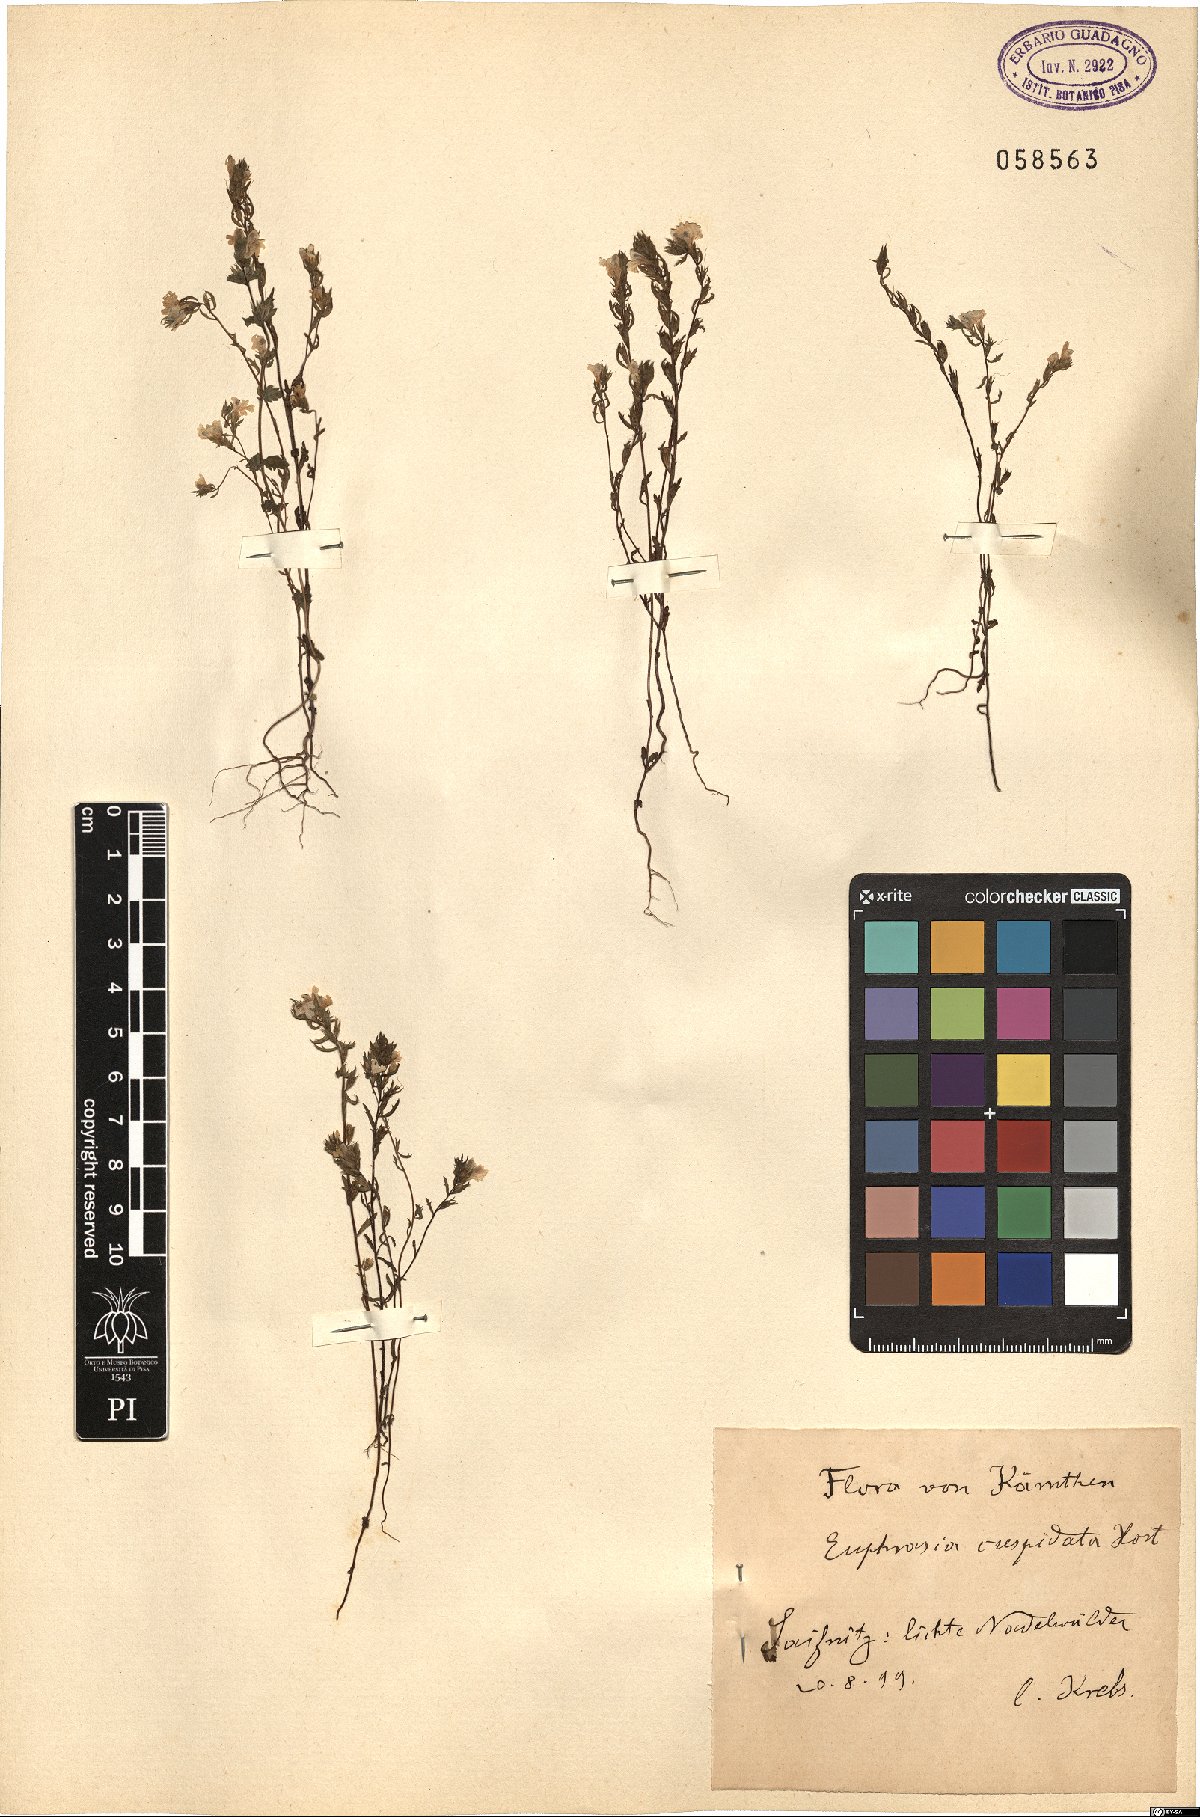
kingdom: Plantae
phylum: Tracheophyta
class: Magnoliopsida
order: Lamiales
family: Orobanchaceae
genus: Euphrasia
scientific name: Euphrasia cuspidata
